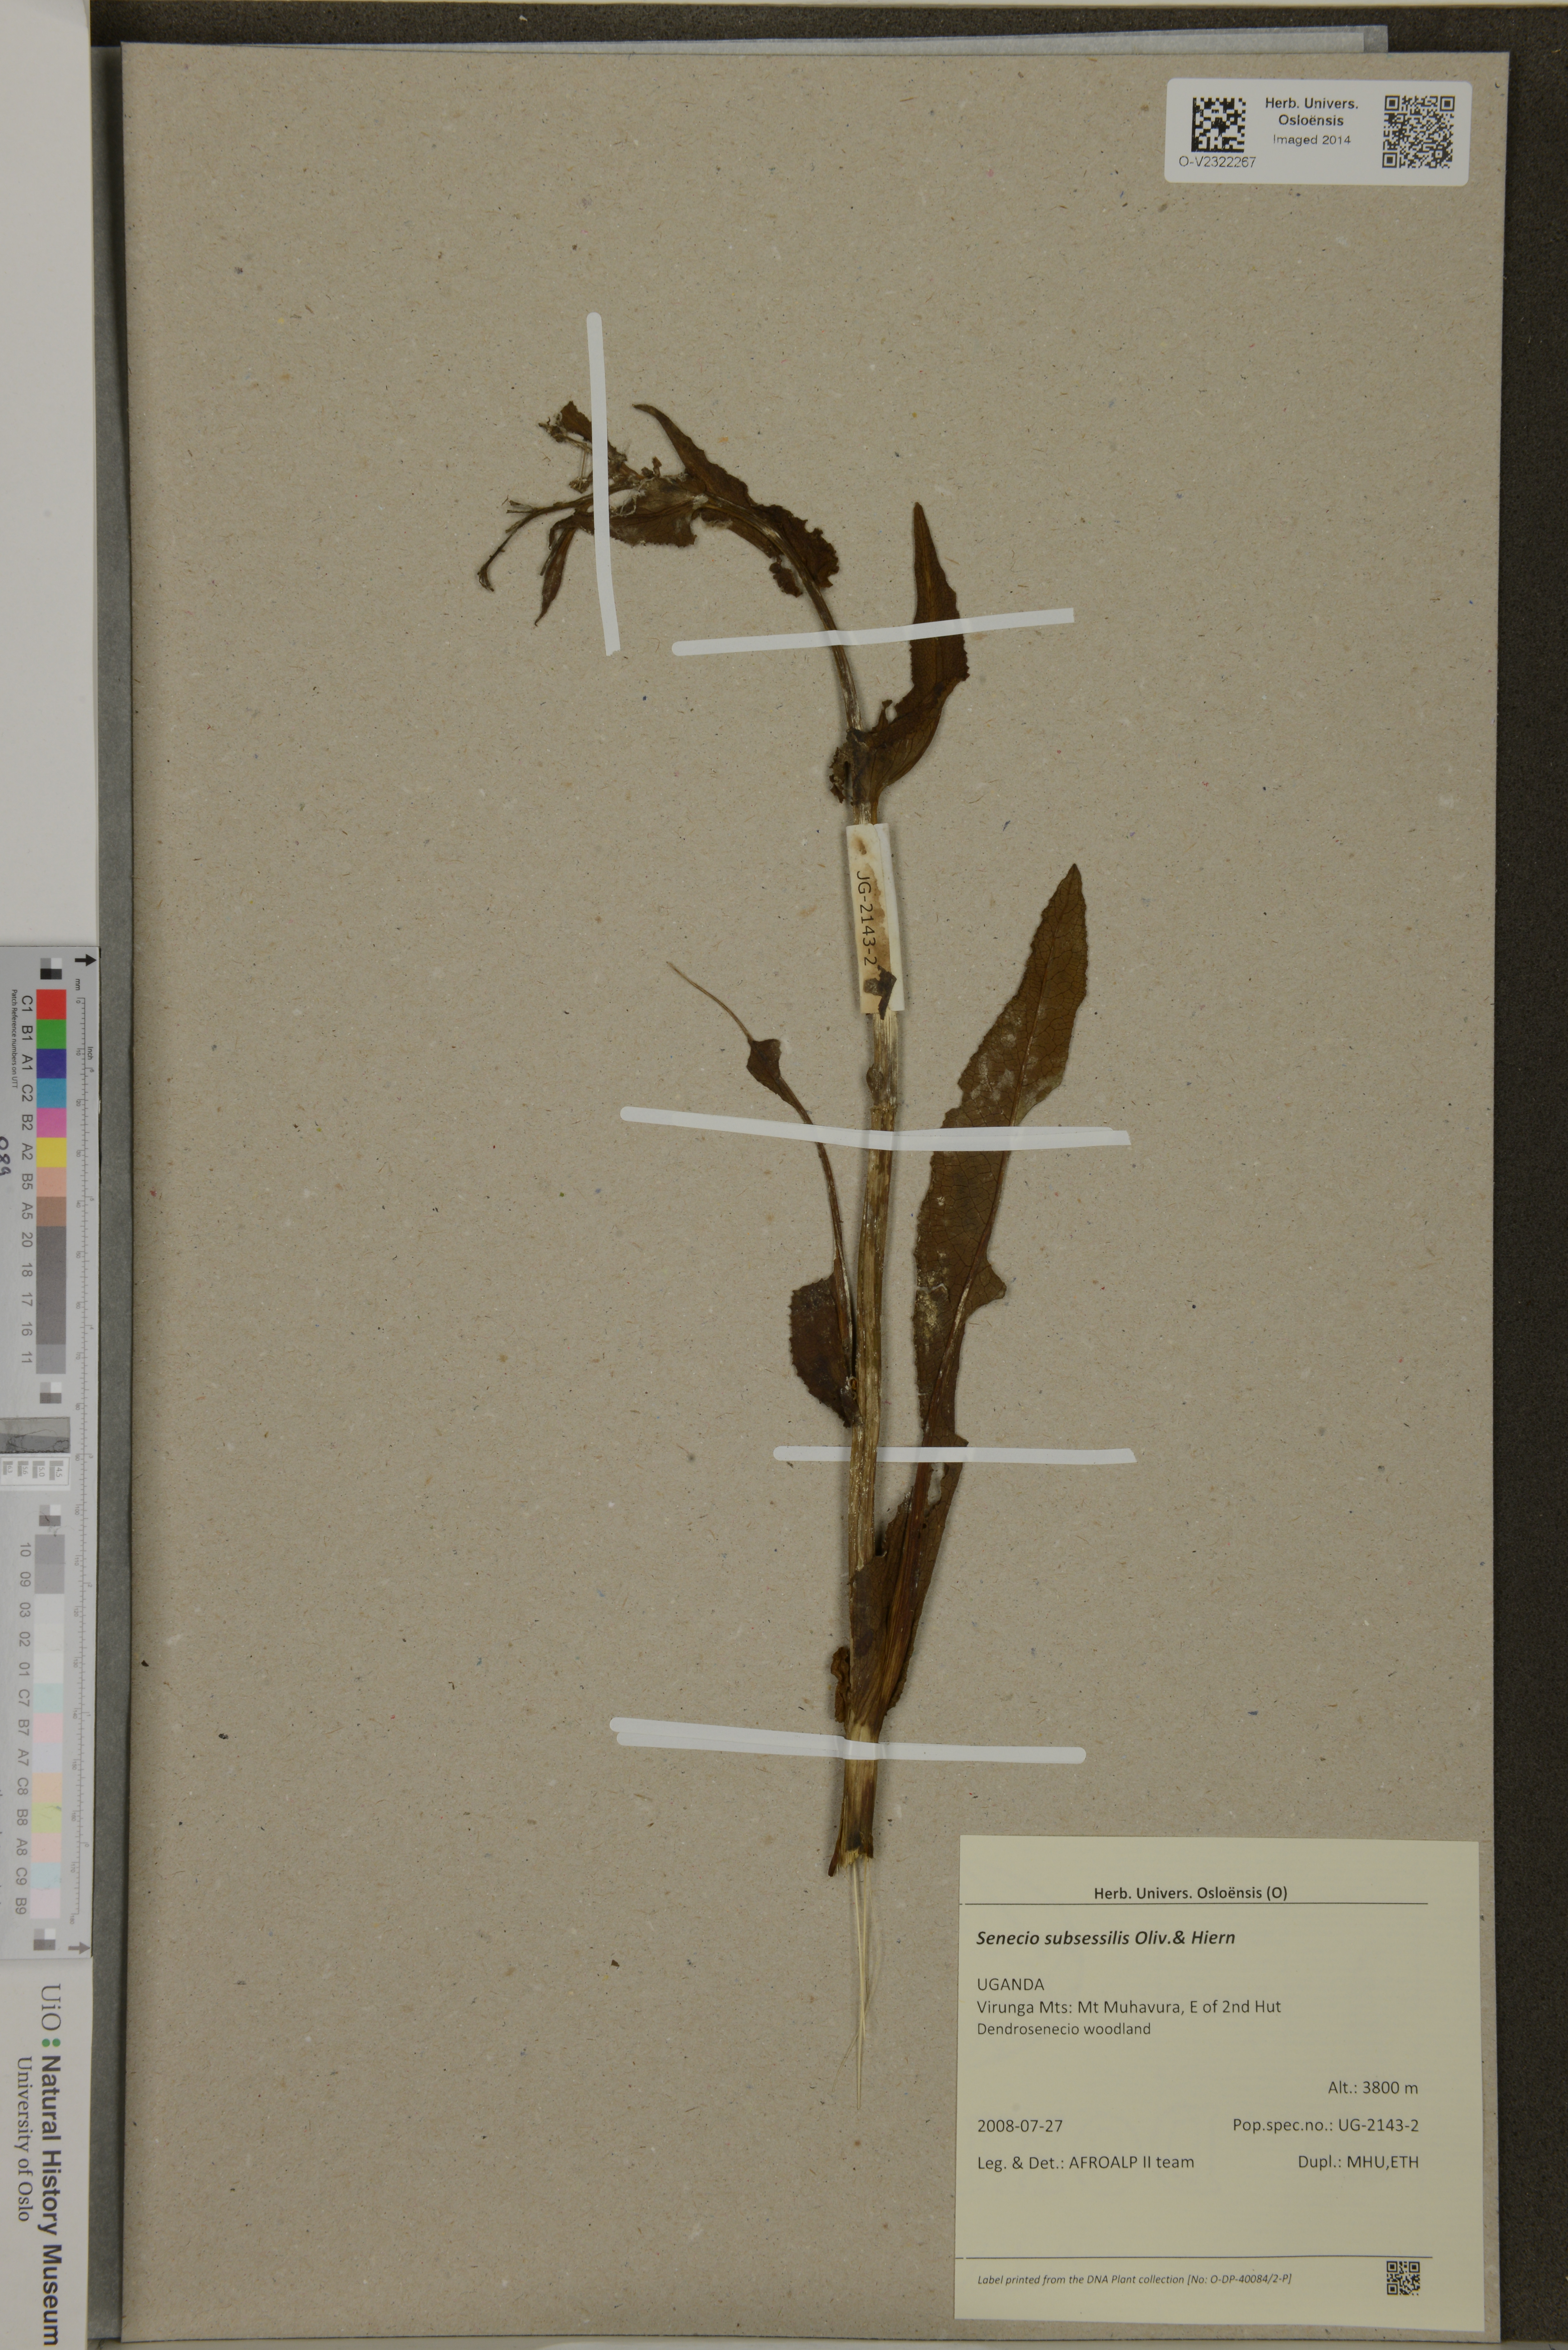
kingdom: Plantae
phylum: Tracheophyta
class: Magnoliopsida
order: Asterales
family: Asteraceae
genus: Senecio
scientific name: Senecio subsessilis
